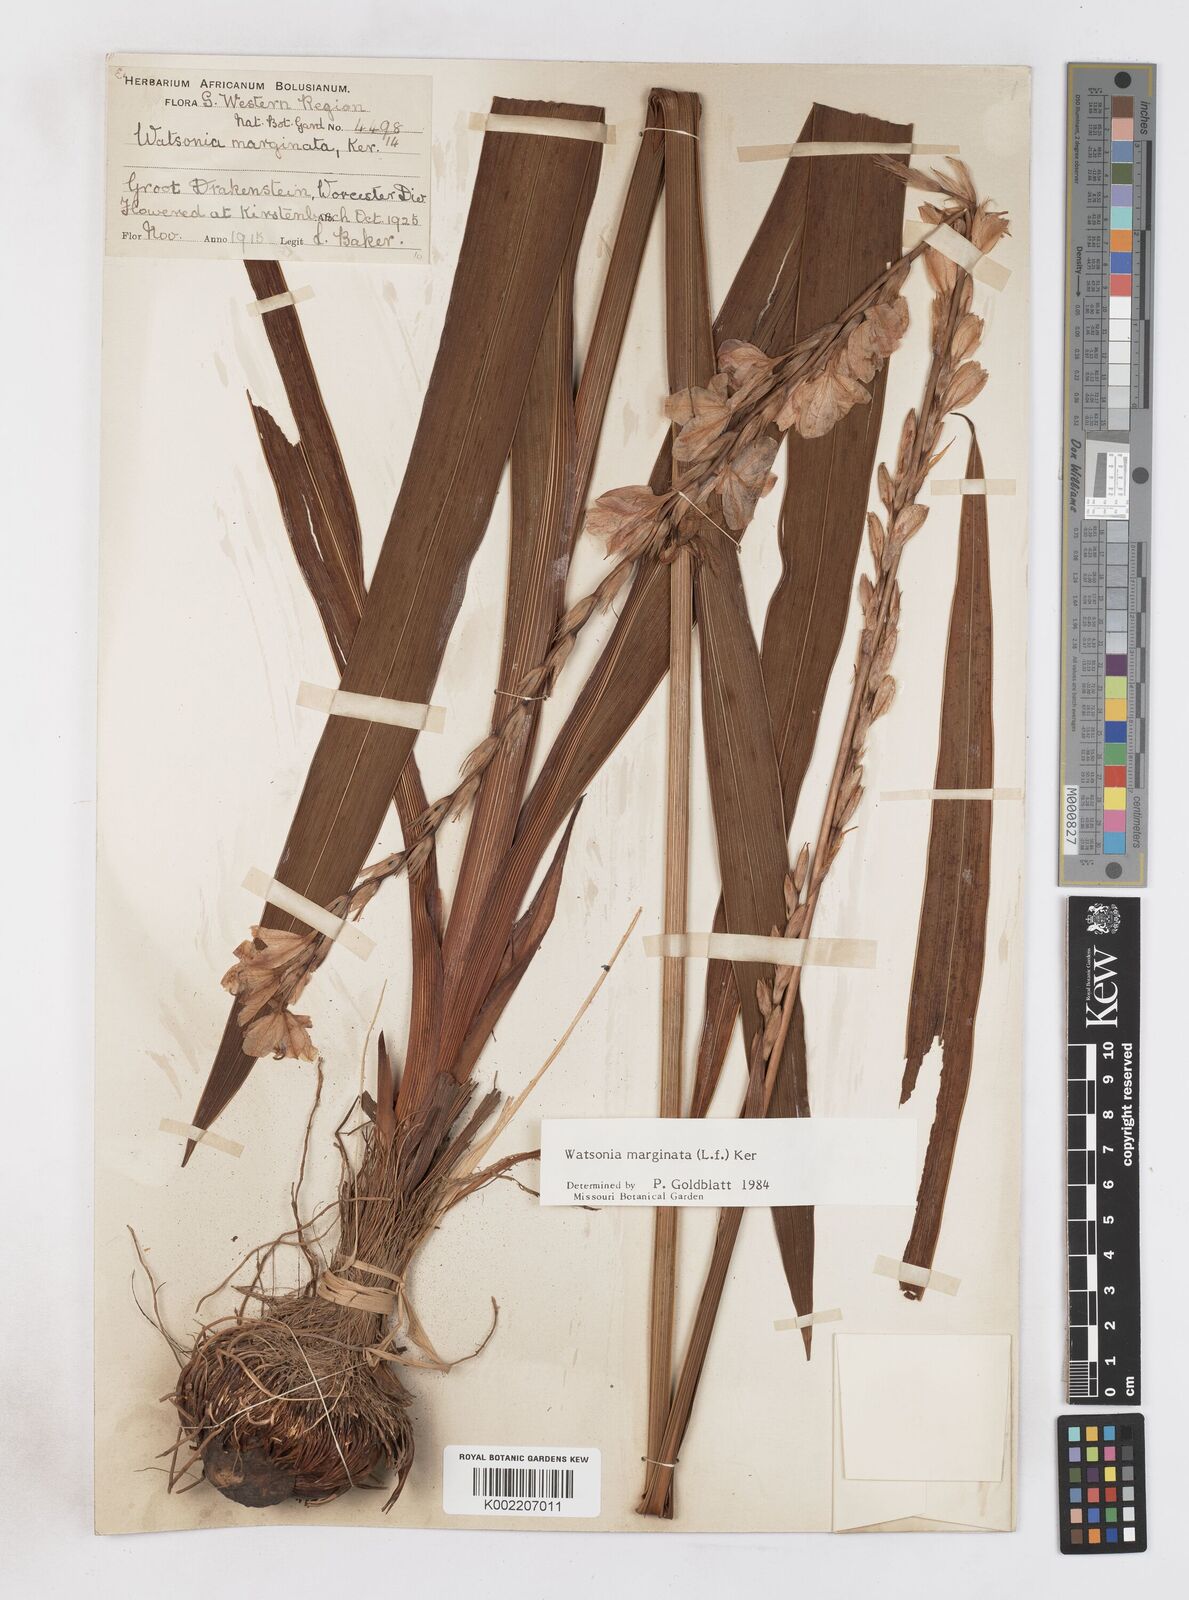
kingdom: Plantae
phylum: Tracheophyta
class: Liliopsida
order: Asparagales
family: Iridaceae
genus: Watsonia
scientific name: Watsonia marginata
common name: Fragrant bugle-lily
